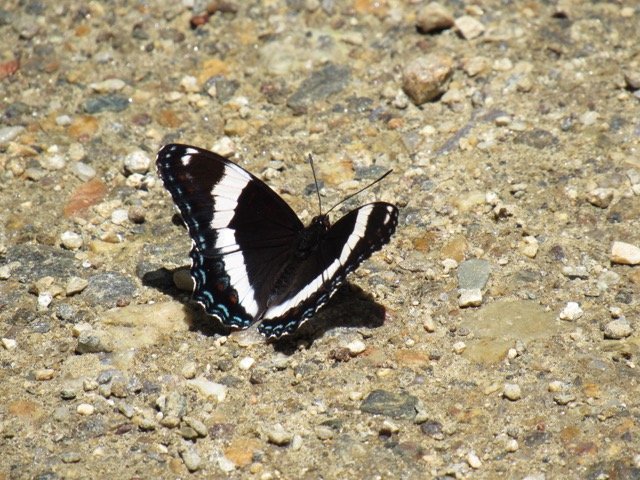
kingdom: Animalia
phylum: Arthropoda
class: Insecta
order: Lepidoptera
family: Nymphalidae
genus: Limenitis
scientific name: Limenitis arthemis
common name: Red-spotted Admiral
